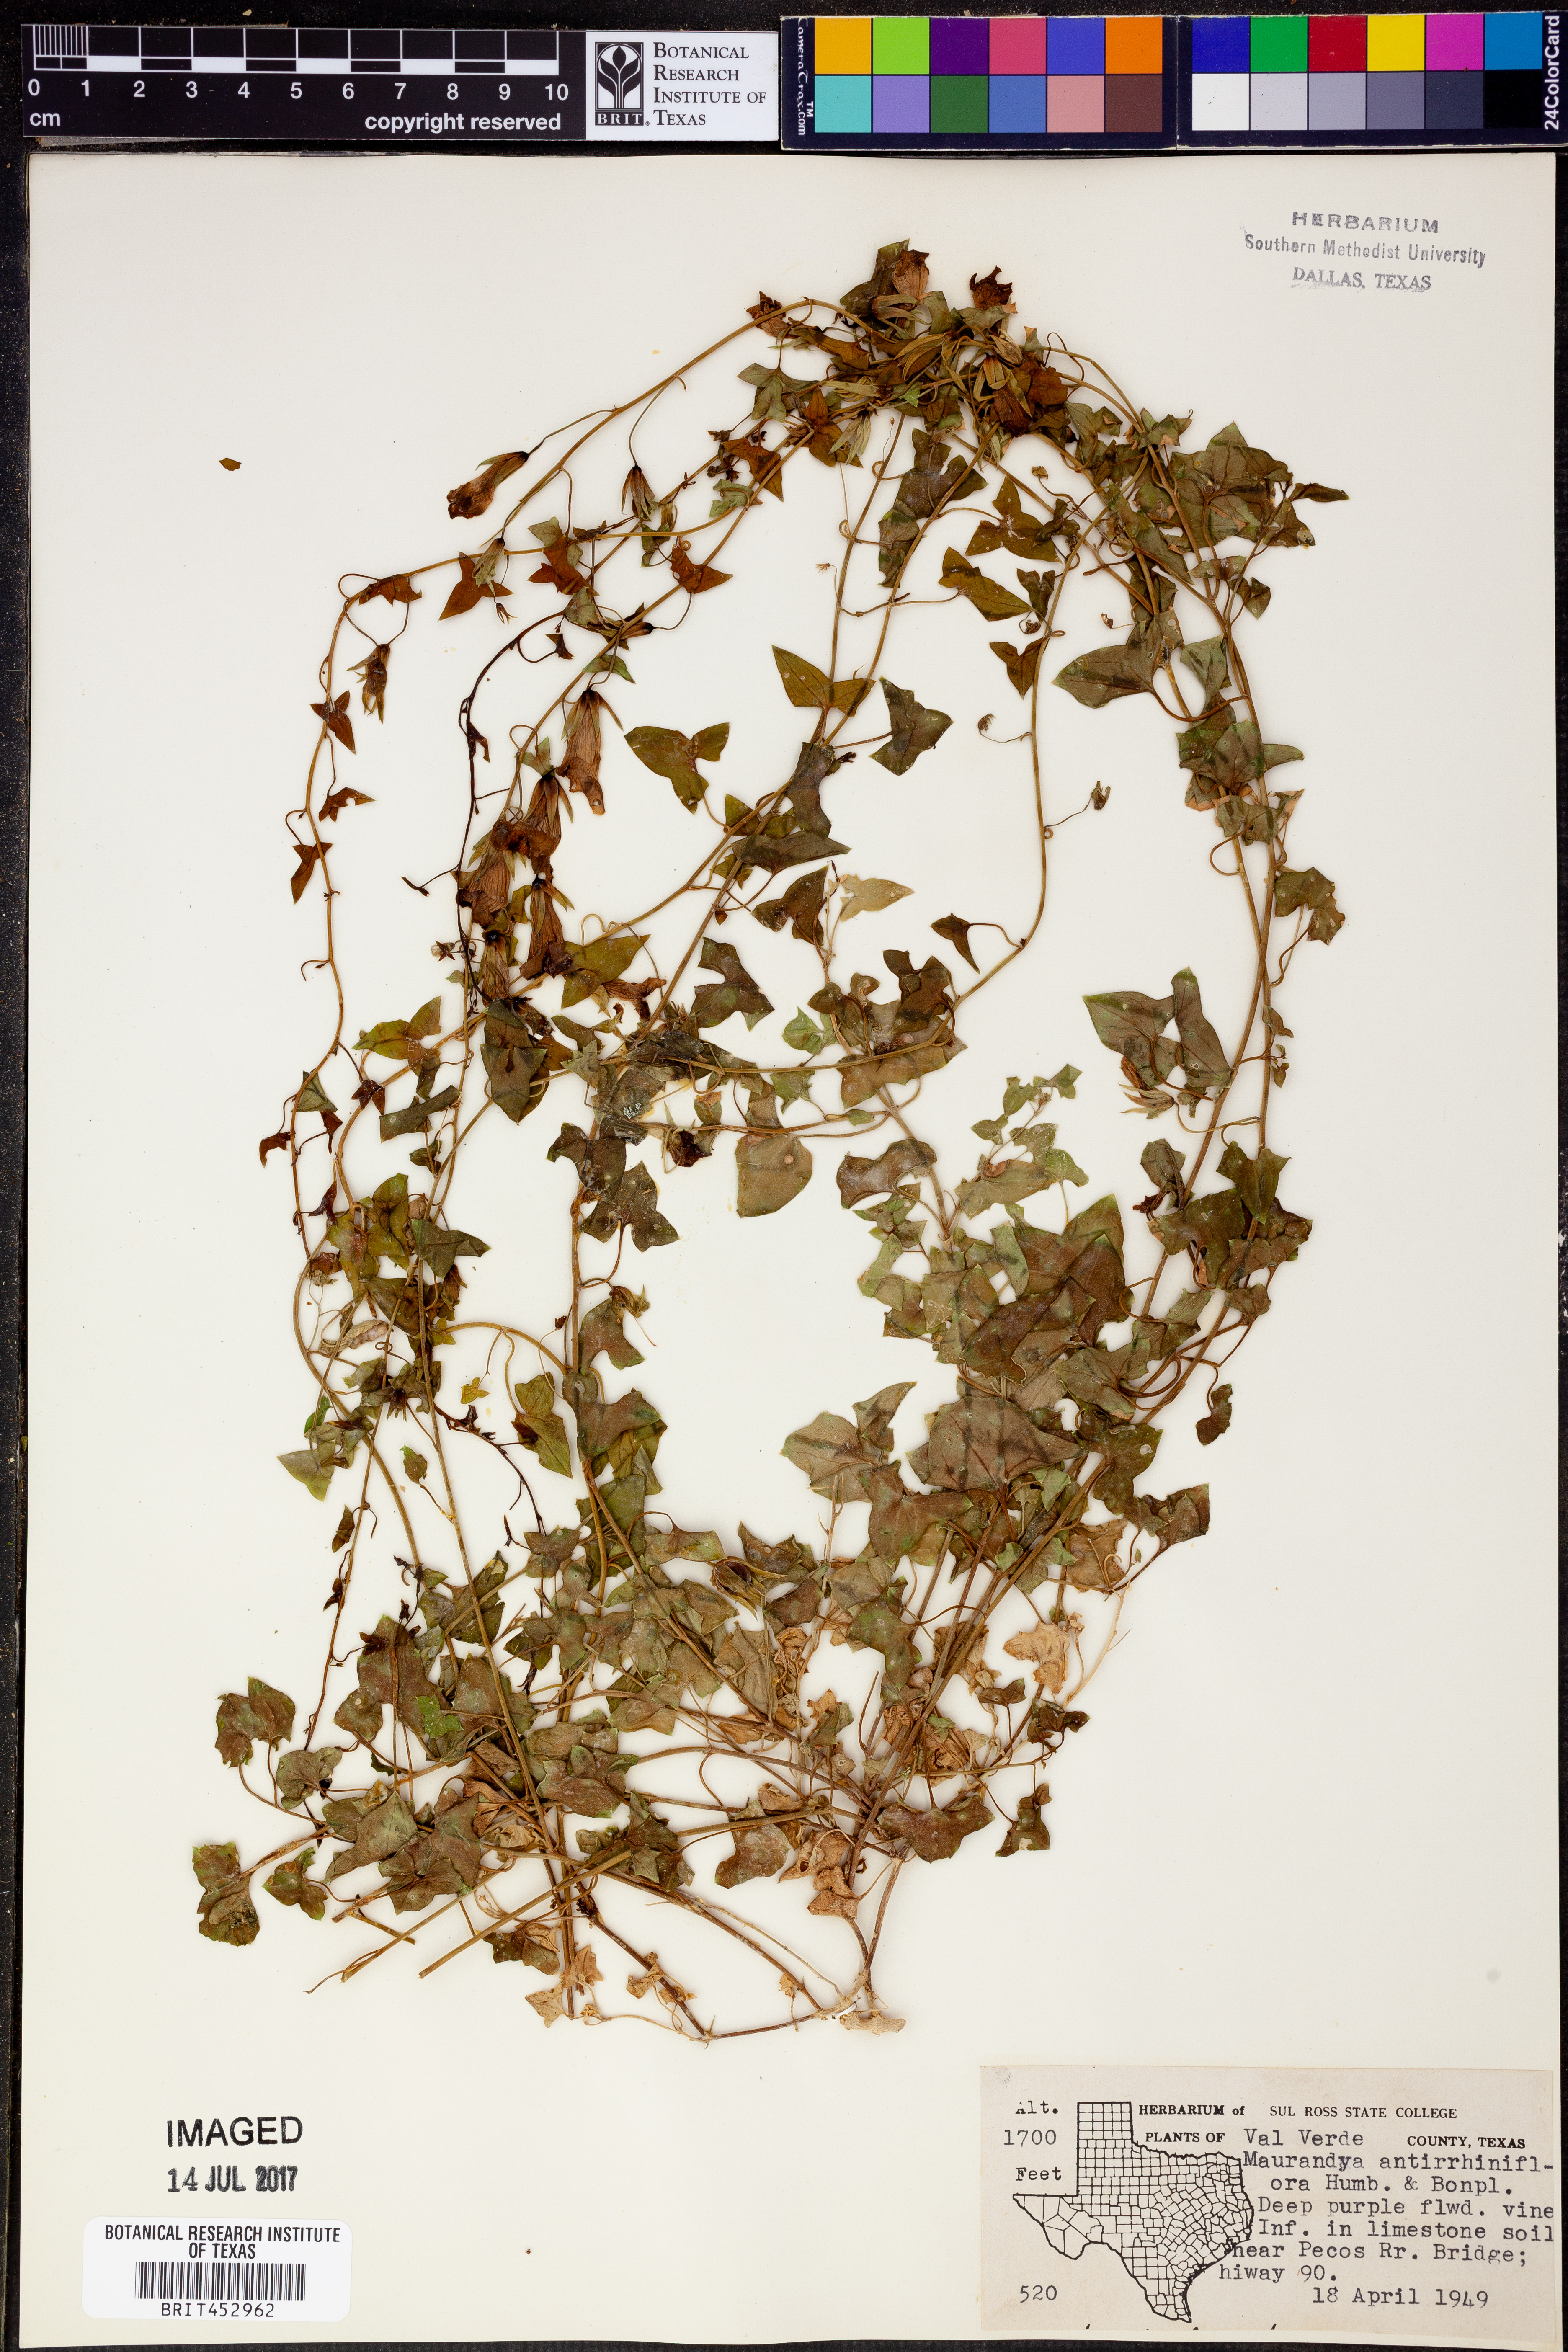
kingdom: Plantae
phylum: Tracheophyta
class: Magnoliopsida
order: Lamiales
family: Plantaginaceae
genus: Maurandella
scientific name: Maurandella antirrhiniflora
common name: Violet twining-snapdragon
